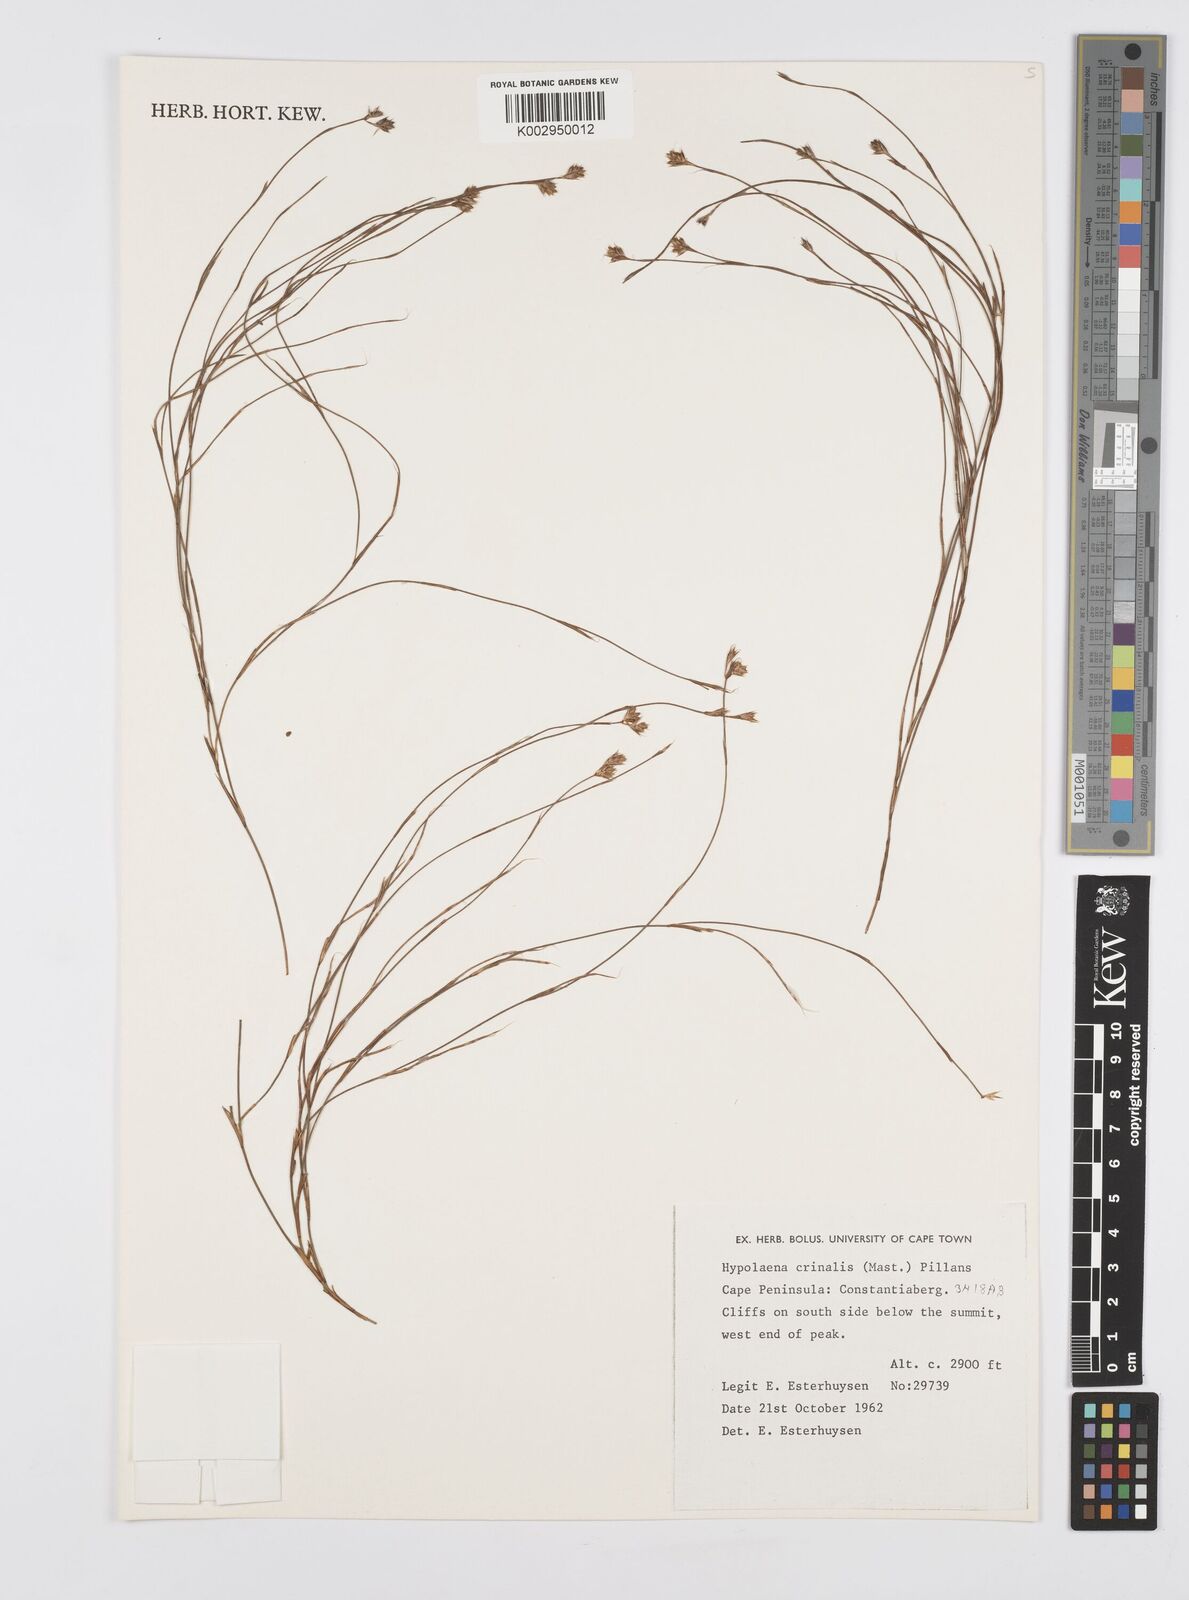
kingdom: Plantae
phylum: Tracheophyta
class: Liliopsida
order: Poales
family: Restionaceae
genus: Anthochortus
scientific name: Anthochortus crinalis
